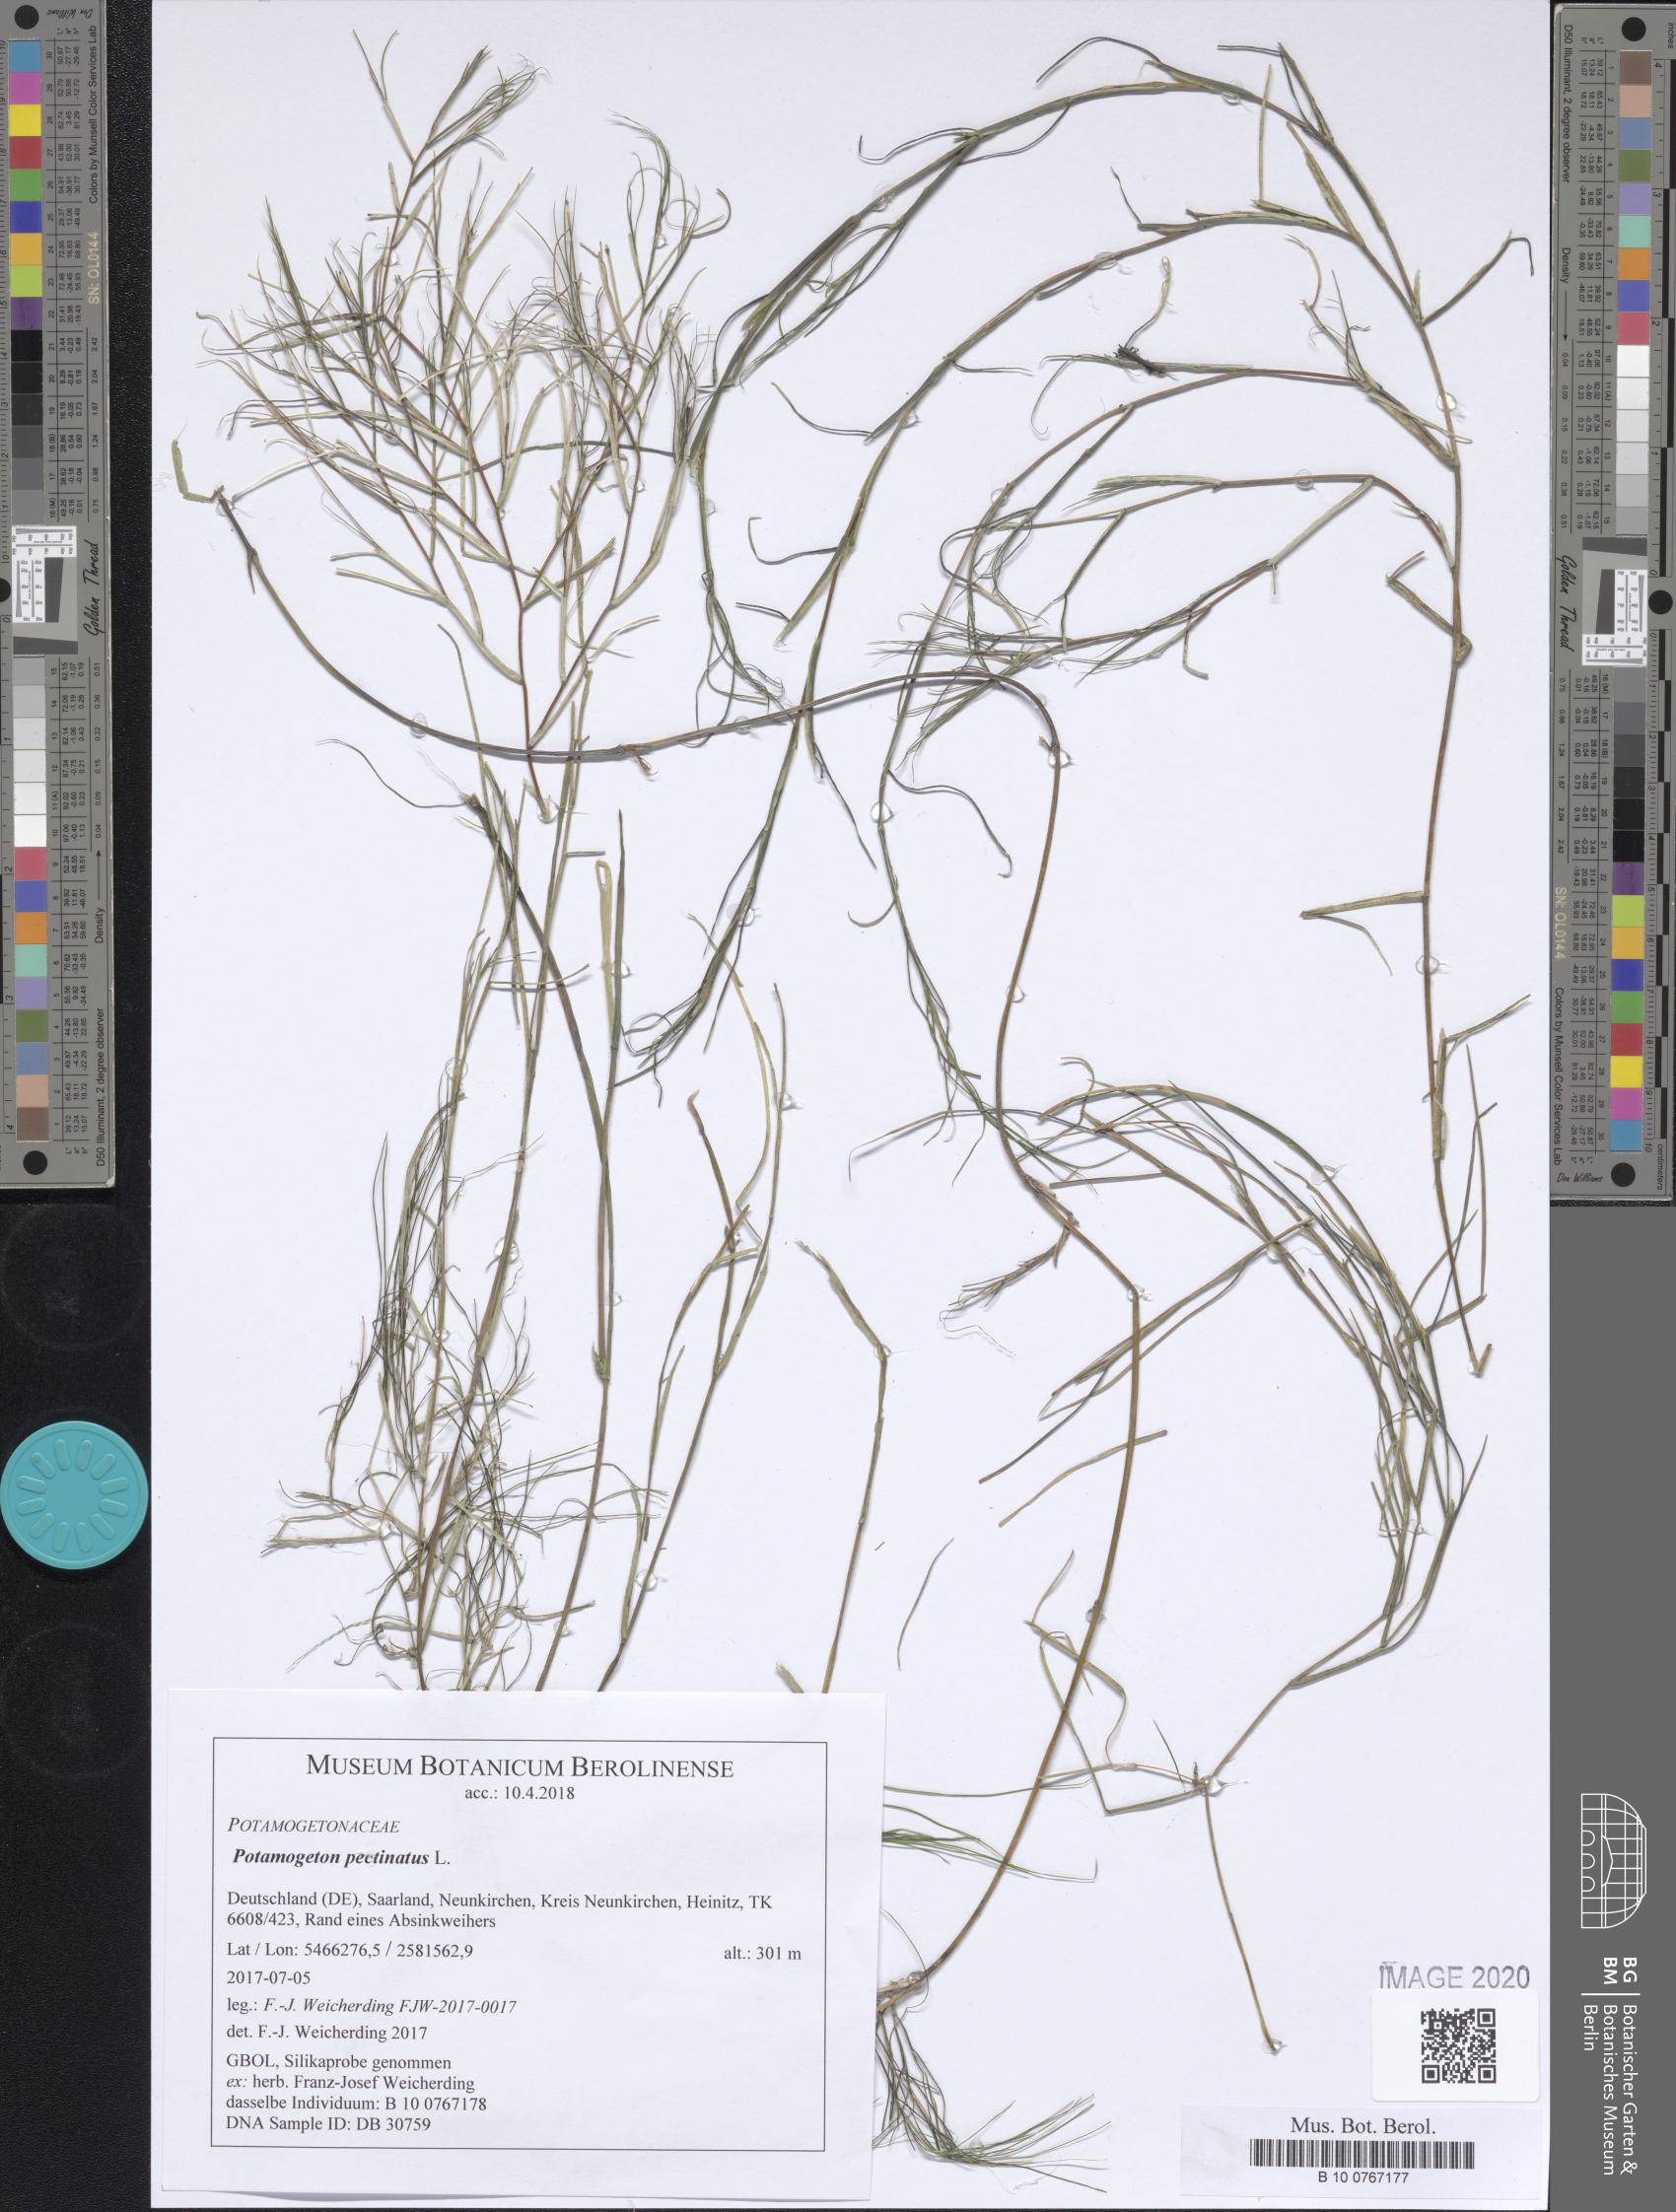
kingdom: Plantae
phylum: Tracheophyta
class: Liliopsida
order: Alismatales
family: Potamogetonaceae
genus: Stuckenia
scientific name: Stuckenia pectinata
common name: Sago pondweed
